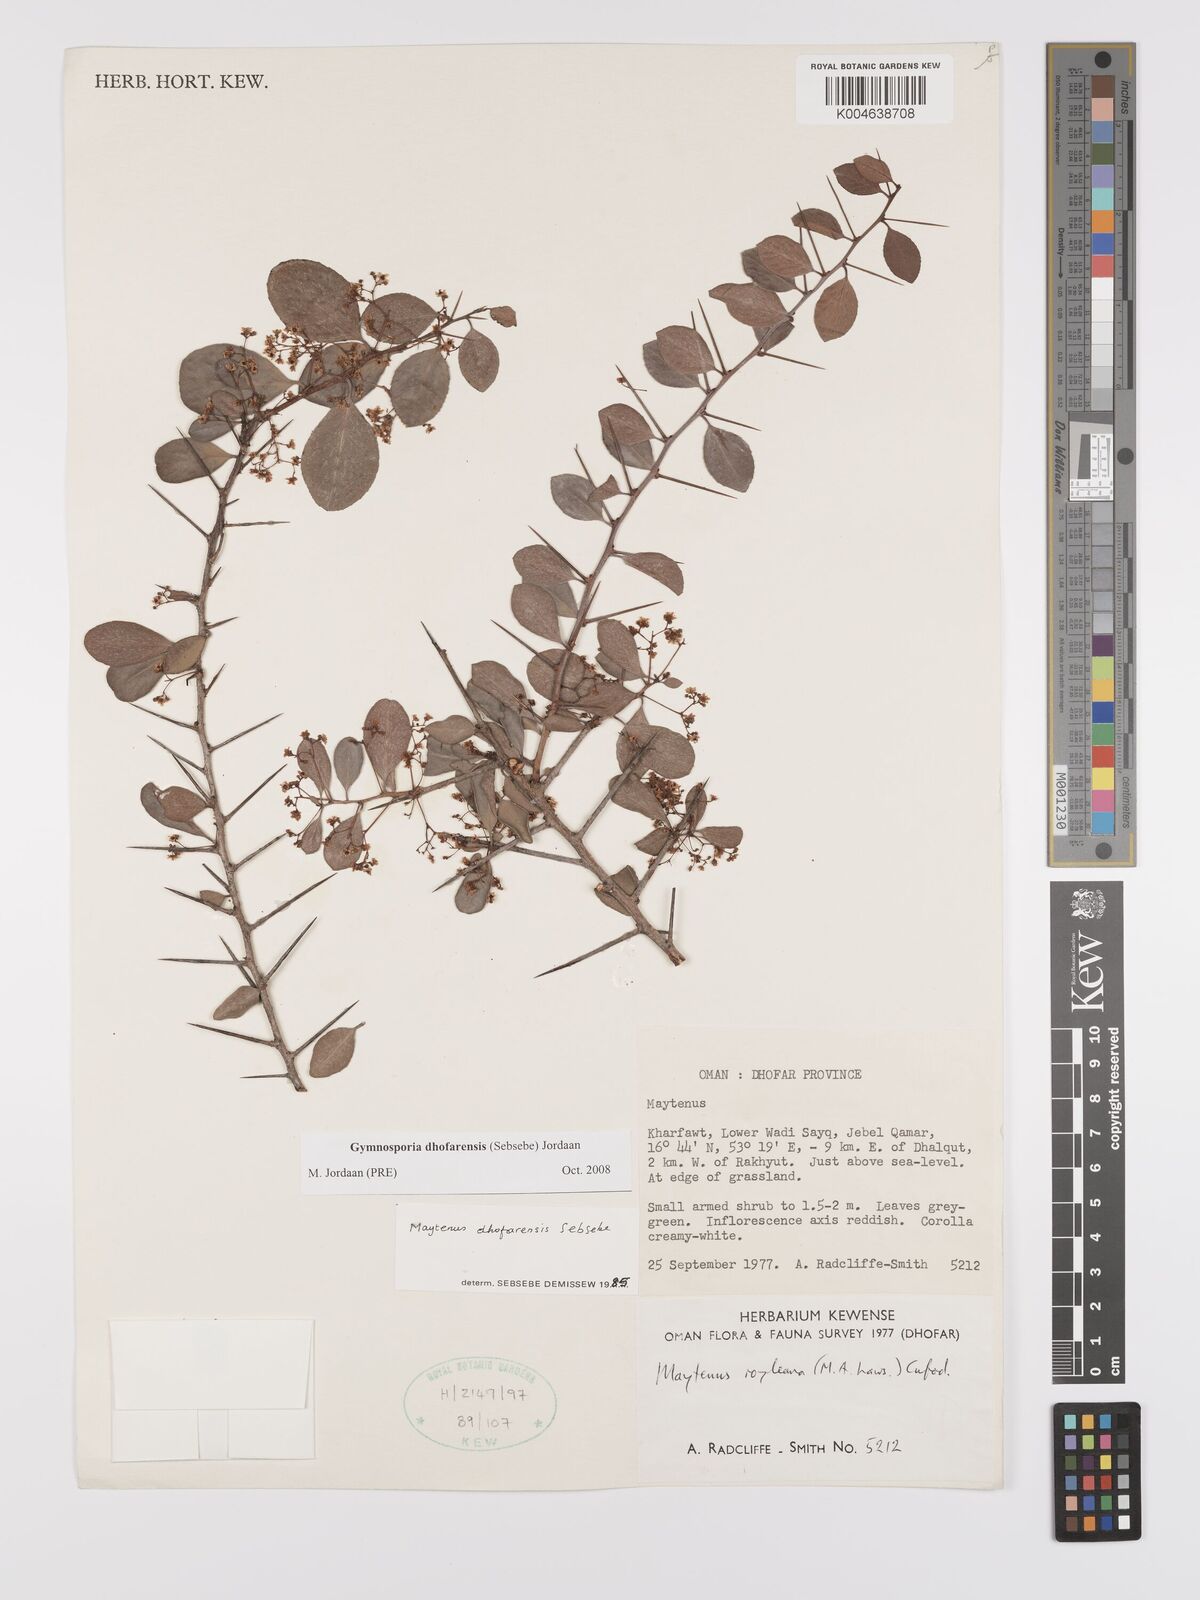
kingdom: Plantae
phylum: Tracheophyta
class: Magnoliopsida
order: Celastrales
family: Celastraceae
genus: Gymnosporia
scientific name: Gymnosporia dhofarensis
